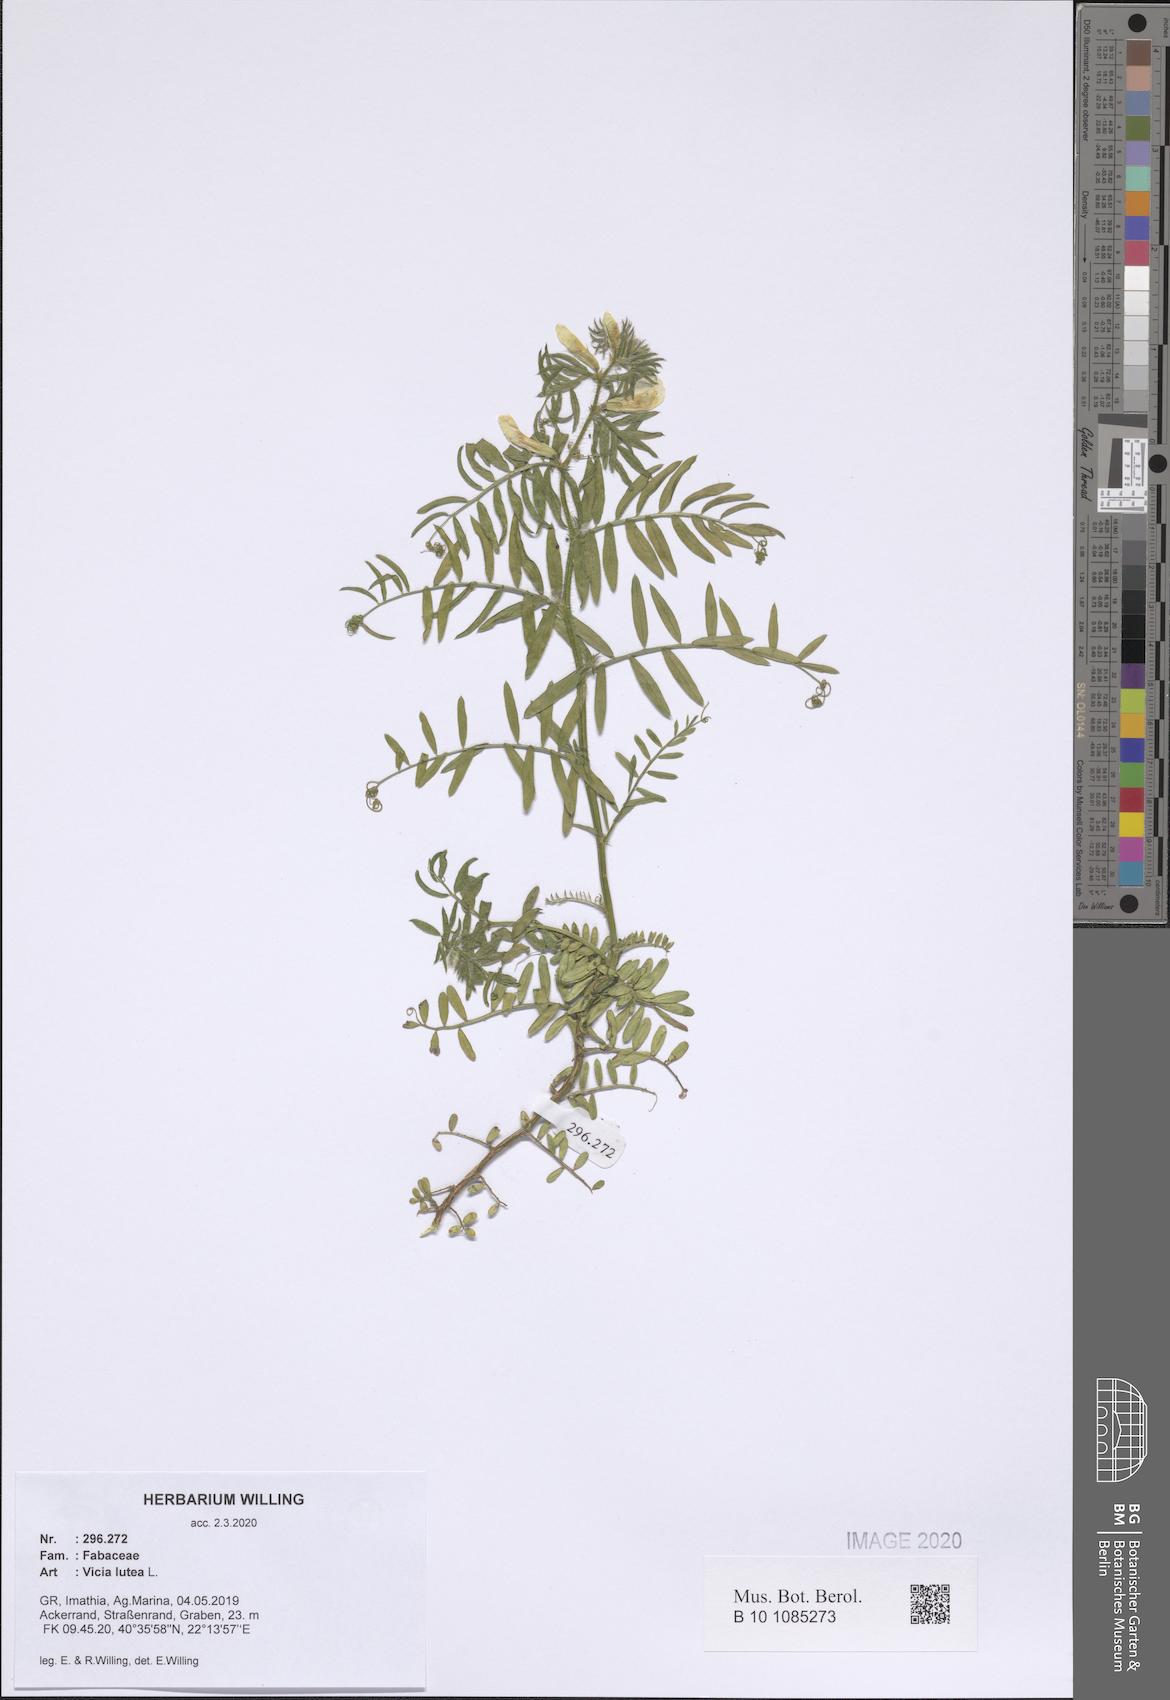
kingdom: Plantae
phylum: Tracheophyta
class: Magnoliopsida
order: Fabales
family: Fabaceae
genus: Vicia
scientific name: Vicia lutea
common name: Smooth yellow vetch
